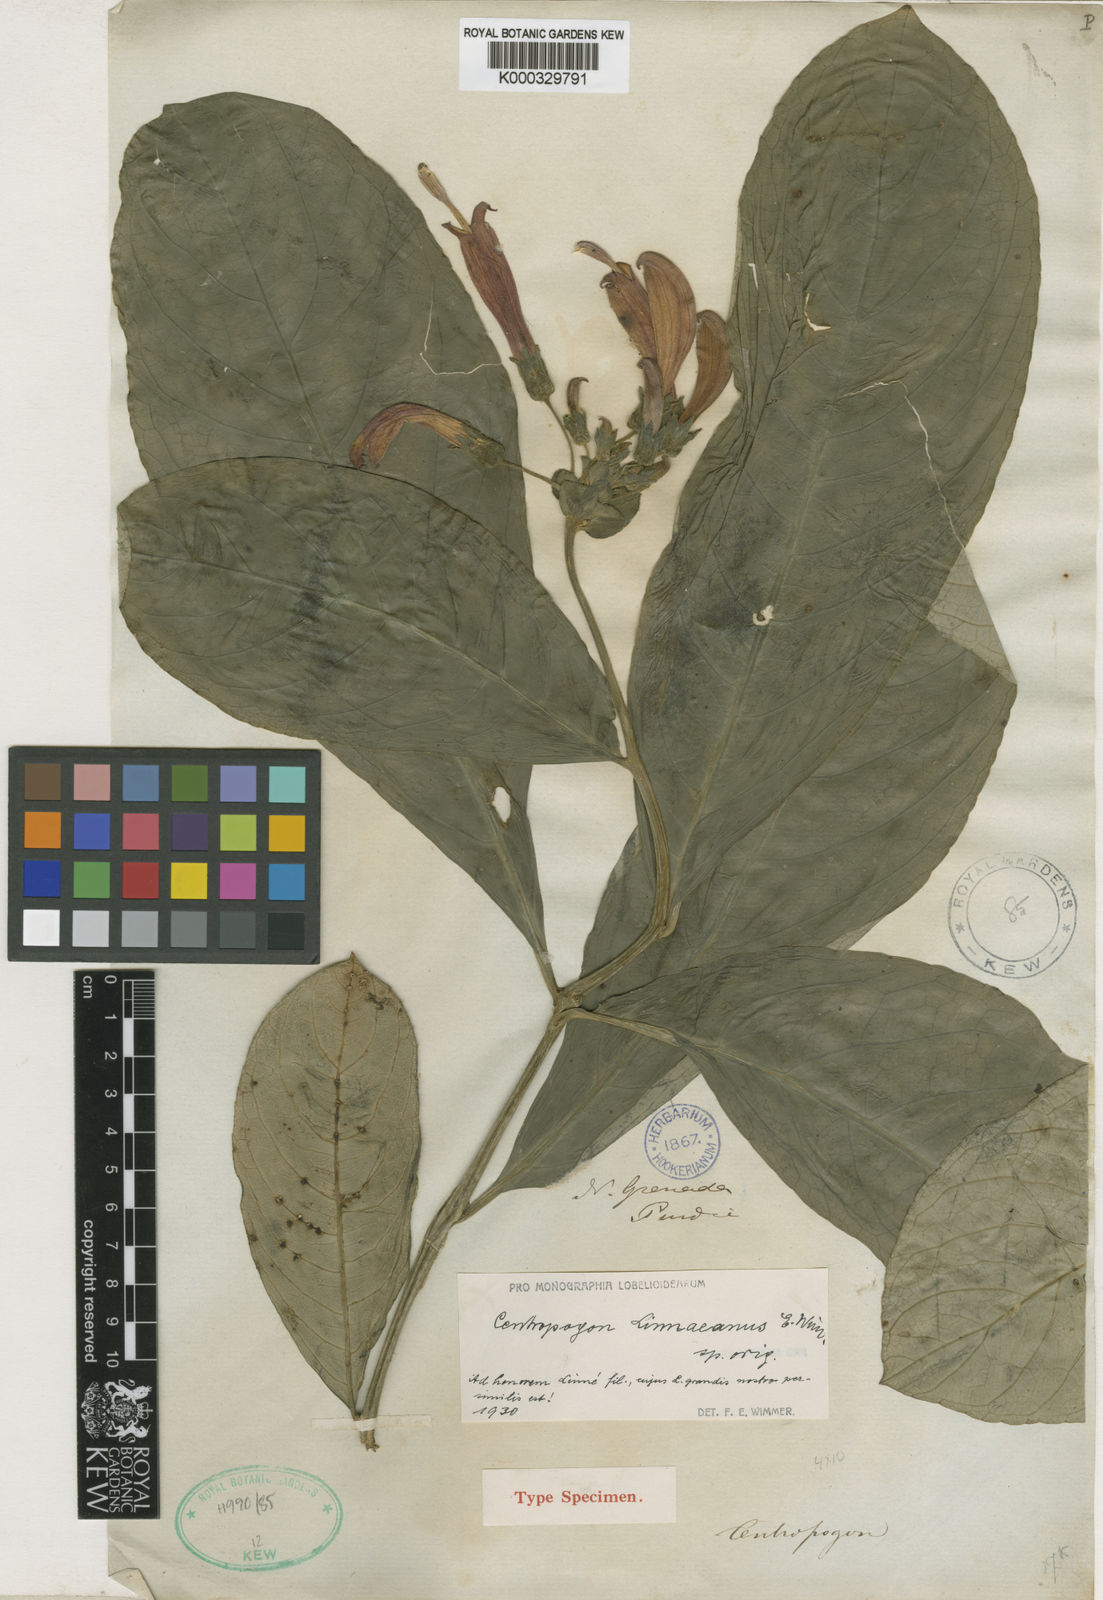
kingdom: Plantae
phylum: Tracheophyta
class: Magnoliopsida
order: Asterales
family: Campanulaceae
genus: Centropogon
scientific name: Centropogon
